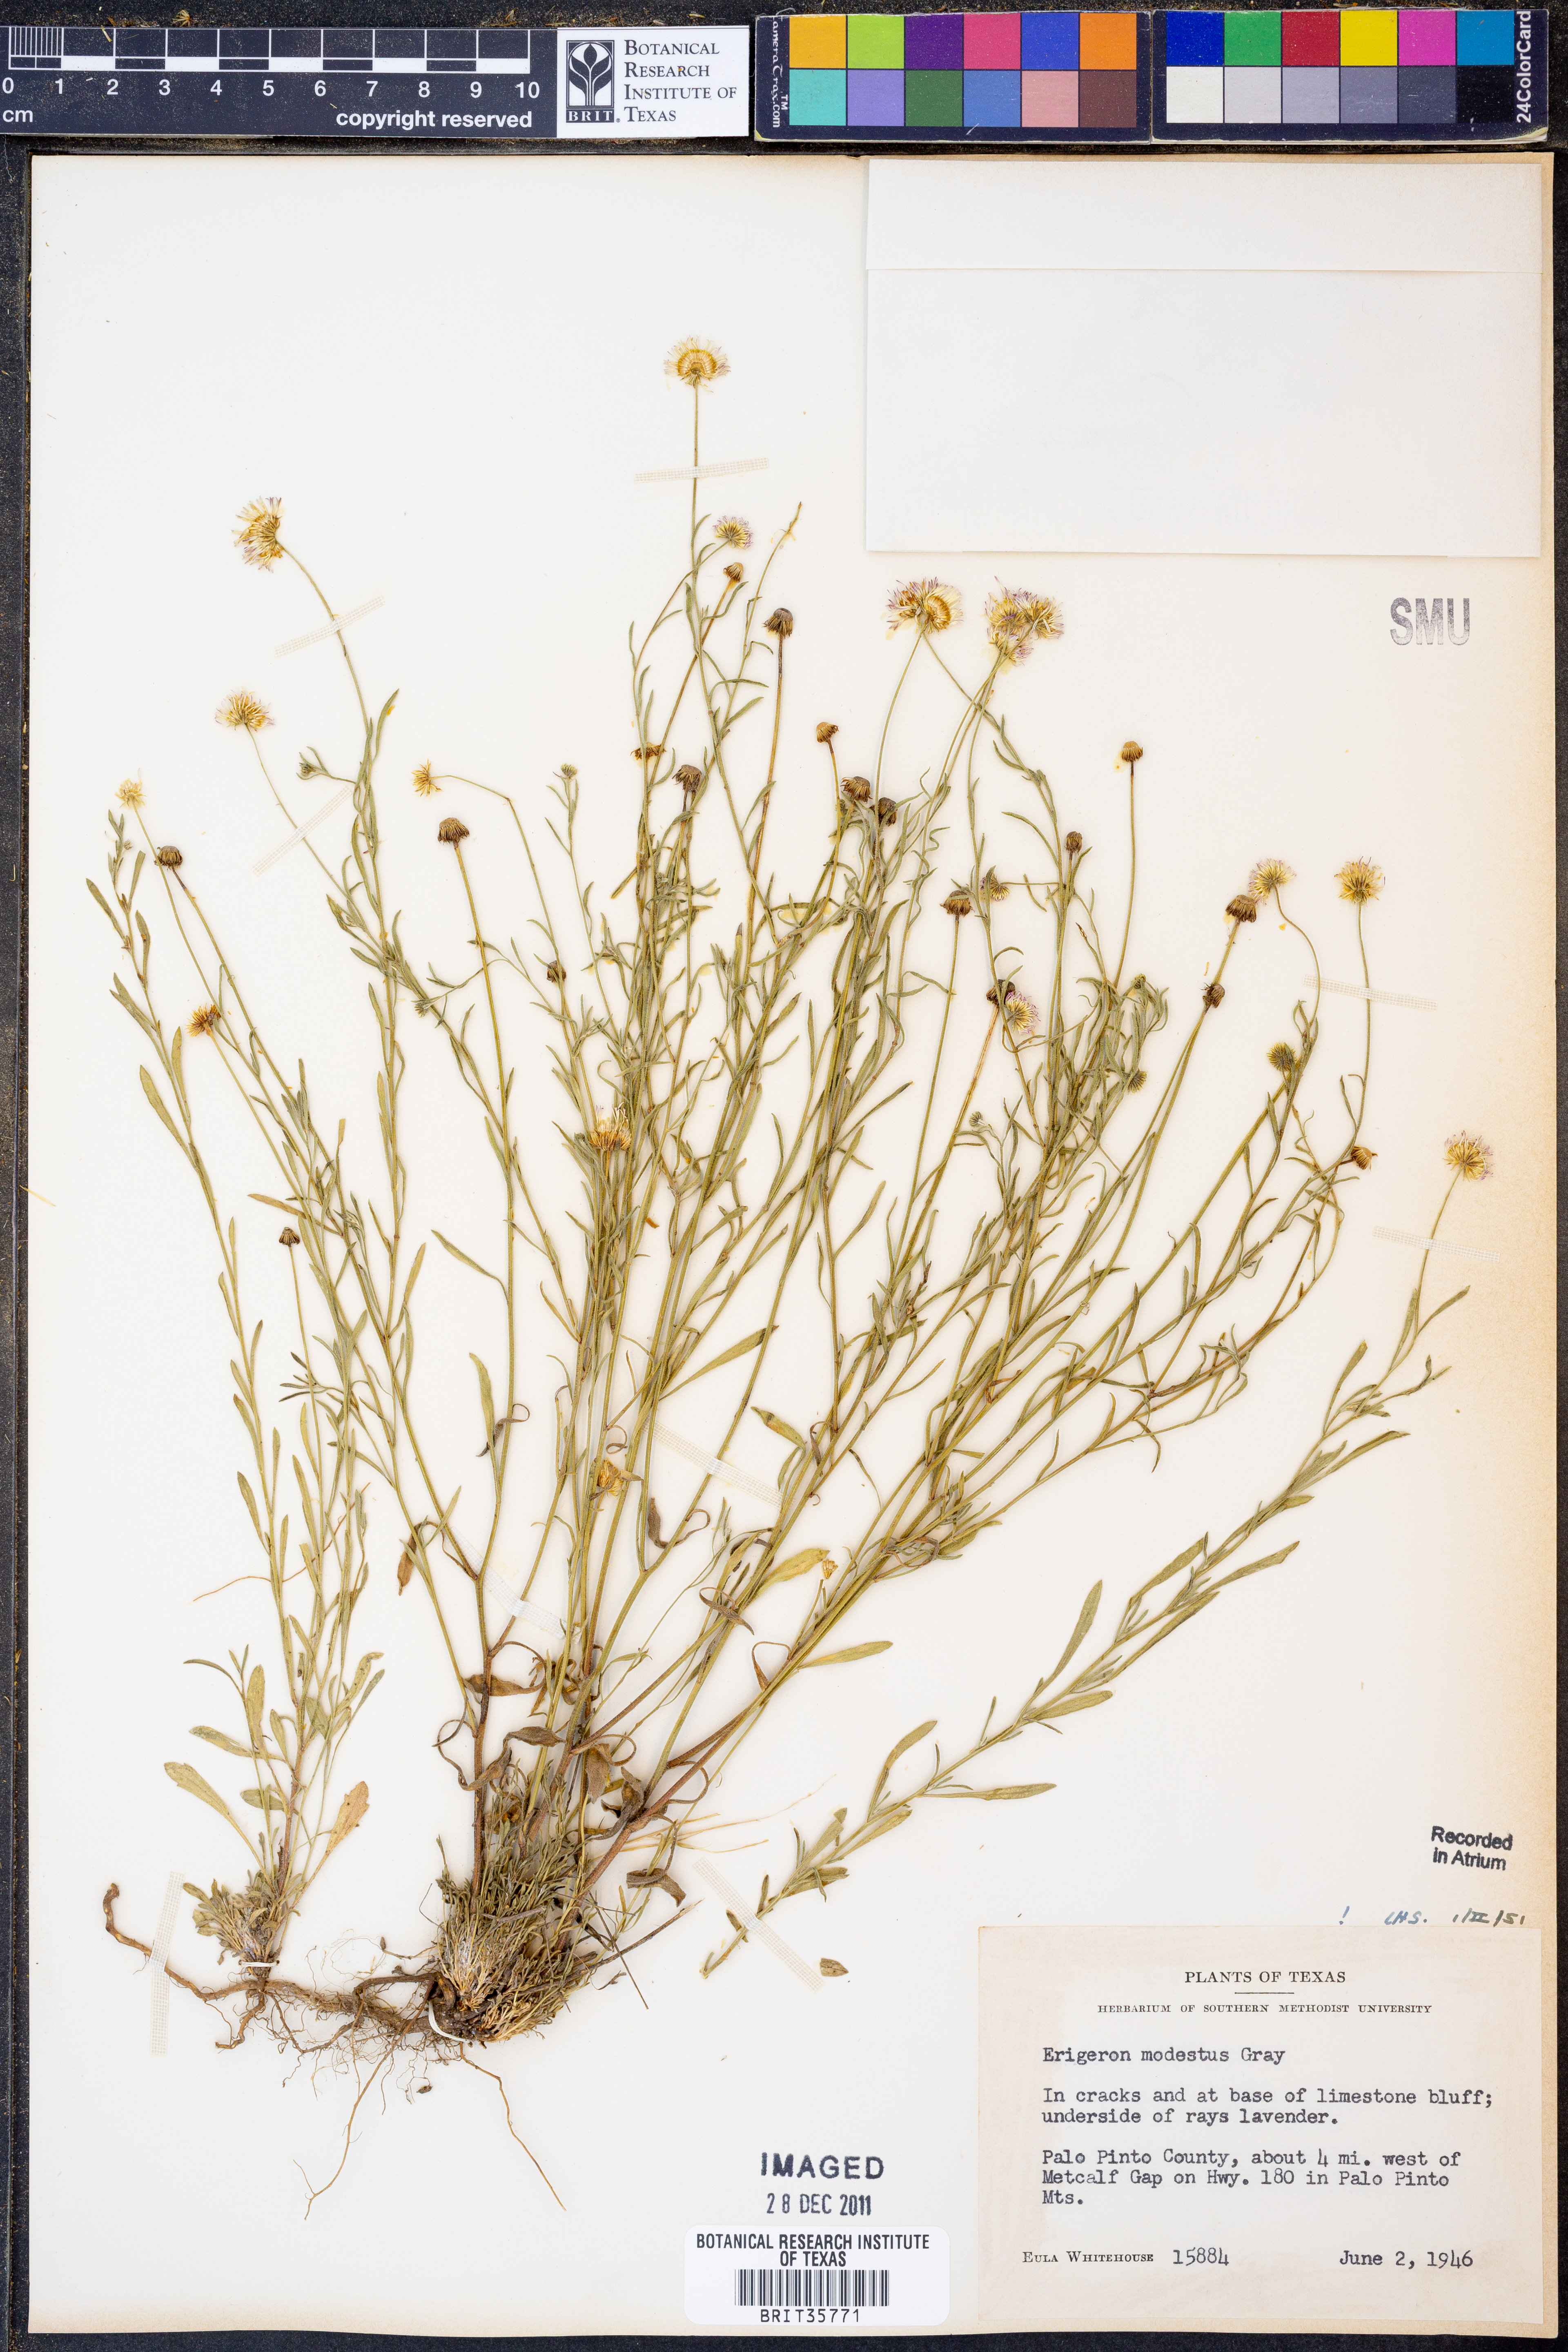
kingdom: Plantae
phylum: Tracheophyta
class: Magnoliopsida
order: Asterales
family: Asteraceae
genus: Erigeron
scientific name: Erigeron modestus
